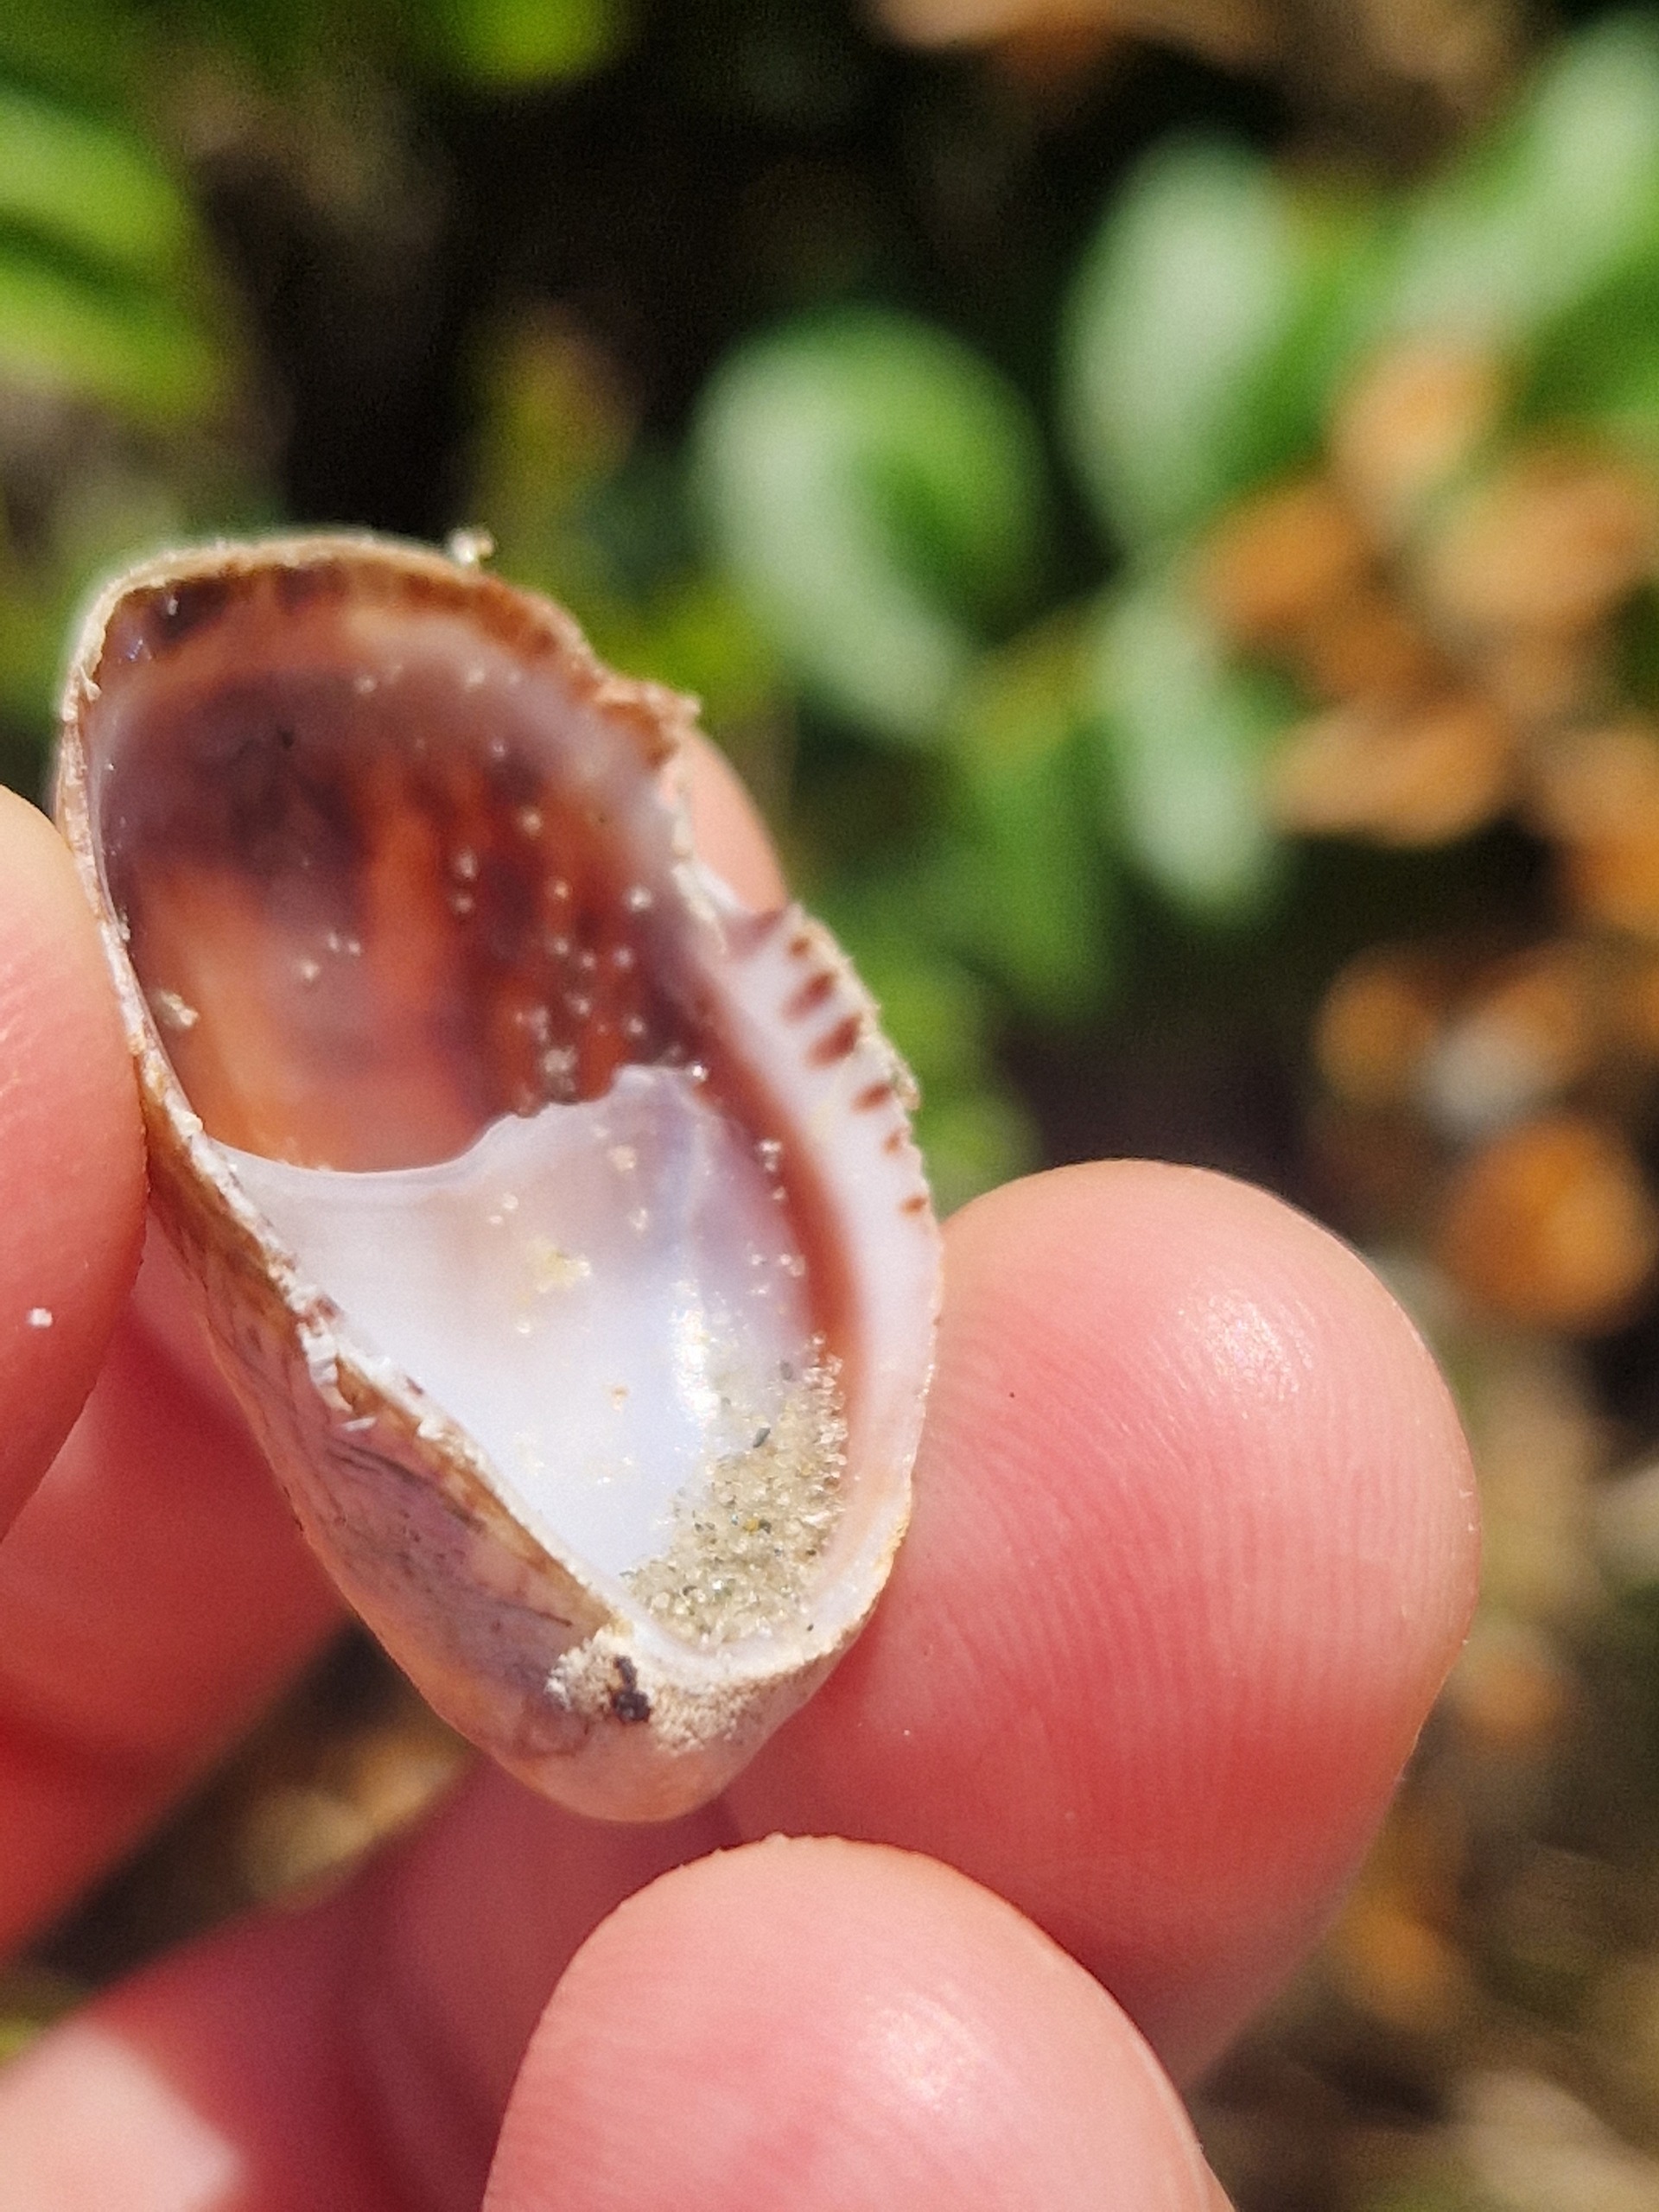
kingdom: Animalia
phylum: Mollusca
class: Gastropoda
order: Littorinimorpha
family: Calyptraeidae
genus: Crepidula
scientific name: Crepidula fornicata
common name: Tøffelsnegl
